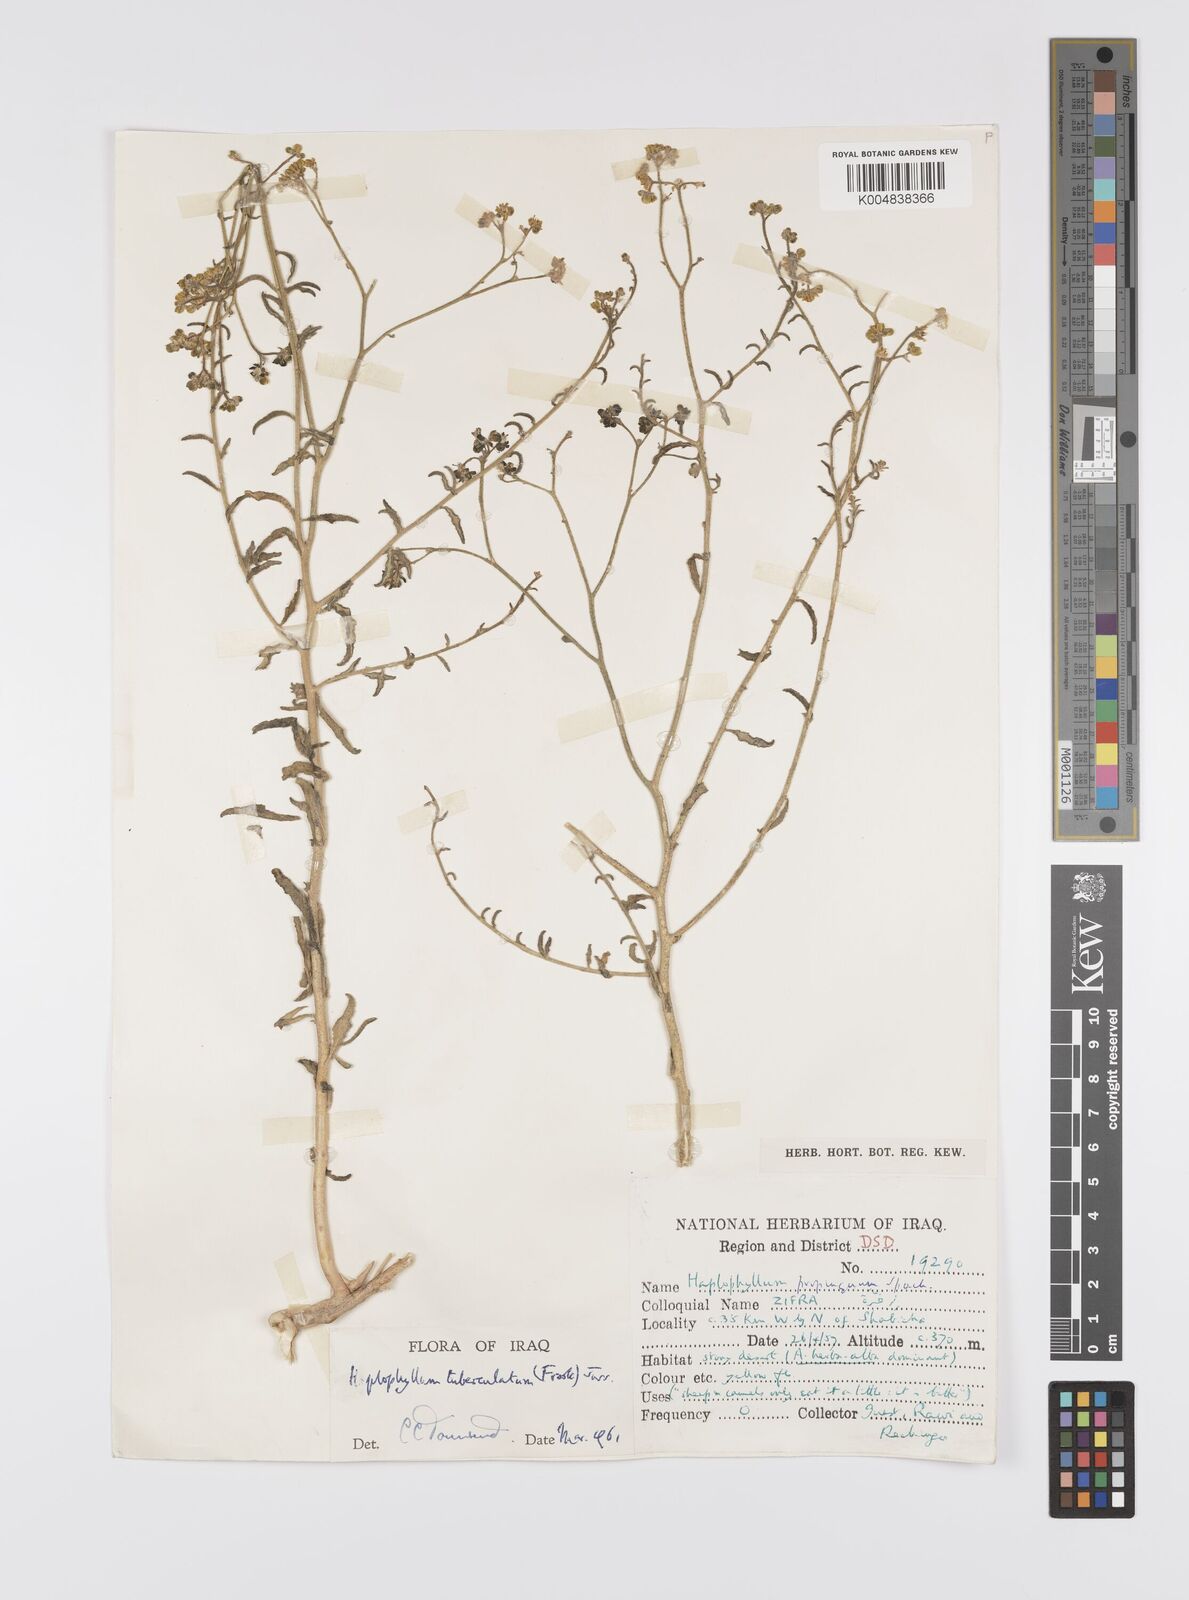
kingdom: Plantae
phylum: Tracheophyta
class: Magnoliopsida
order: Sapindales
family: Rutaceae
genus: Haplophyllum
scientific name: Haplophyllum tuberculatum
